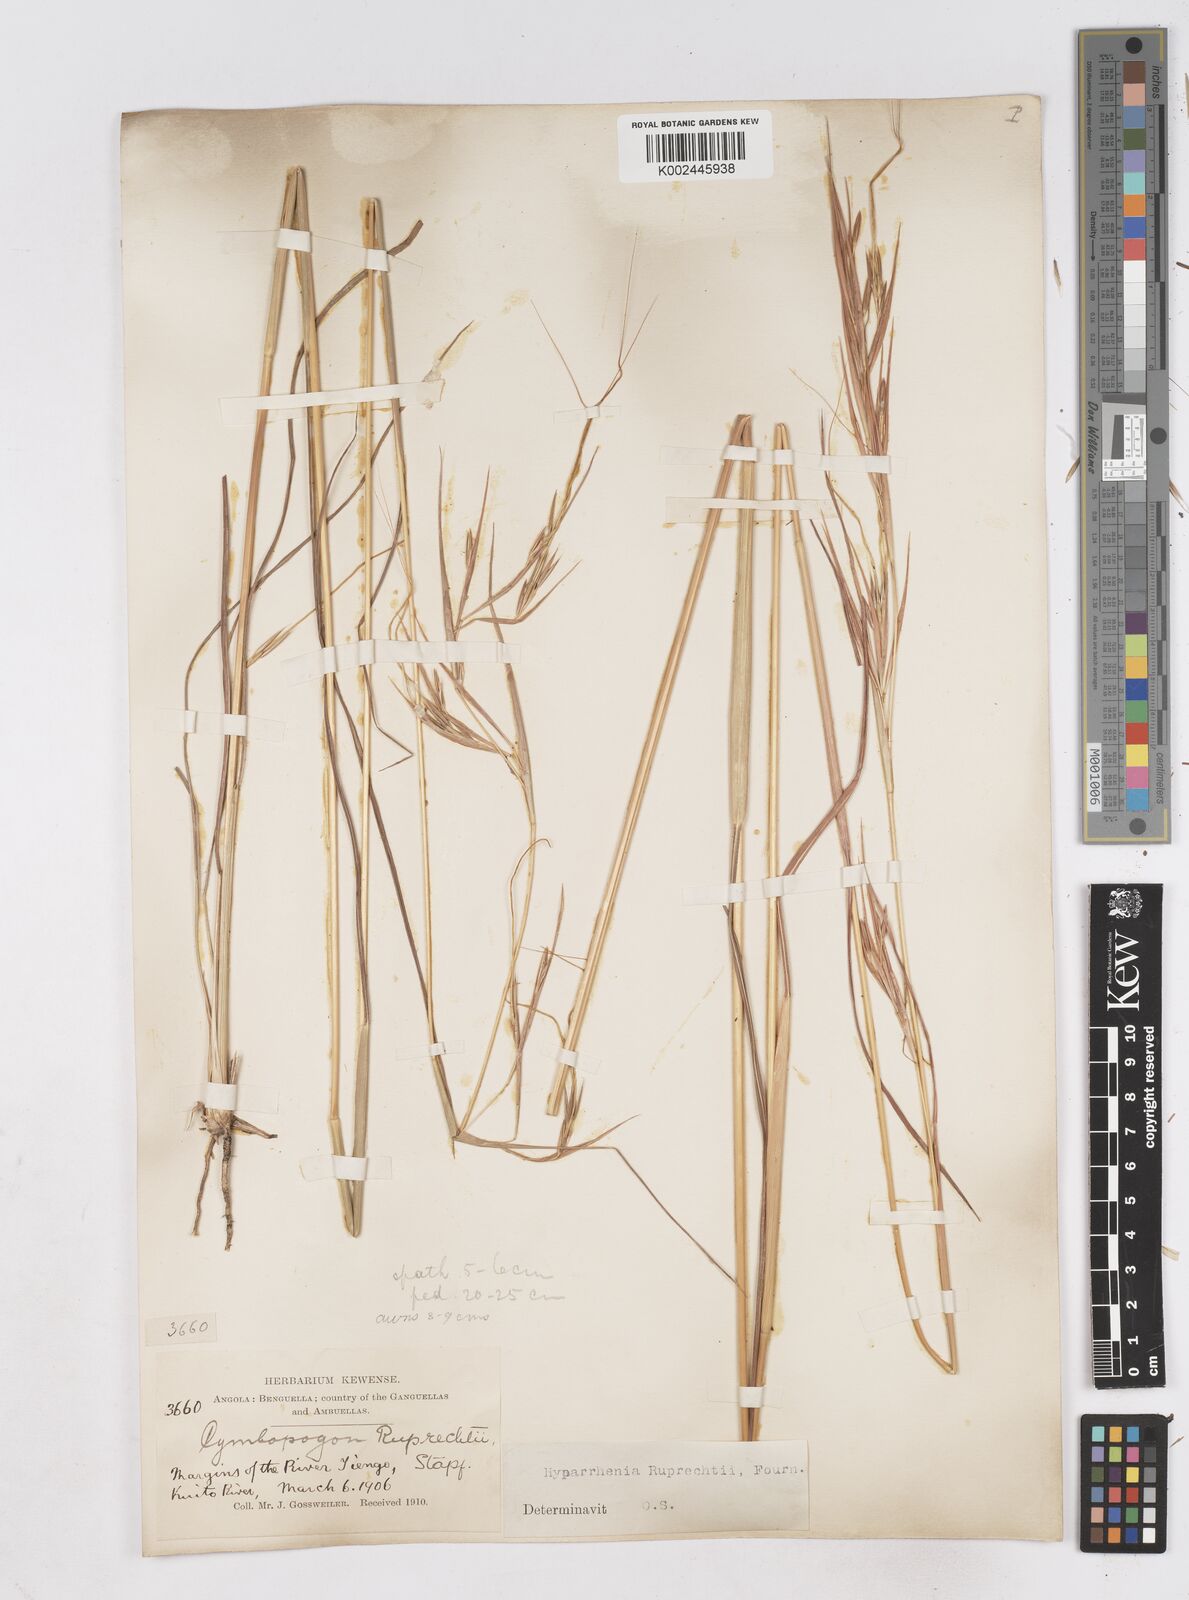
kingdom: Plantae
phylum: Tracheophyta
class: Liliopsida
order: Poales
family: Poaceae
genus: Hyperthelia
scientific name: Hyperthelia dissoluta
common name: Yellow thatching grass
